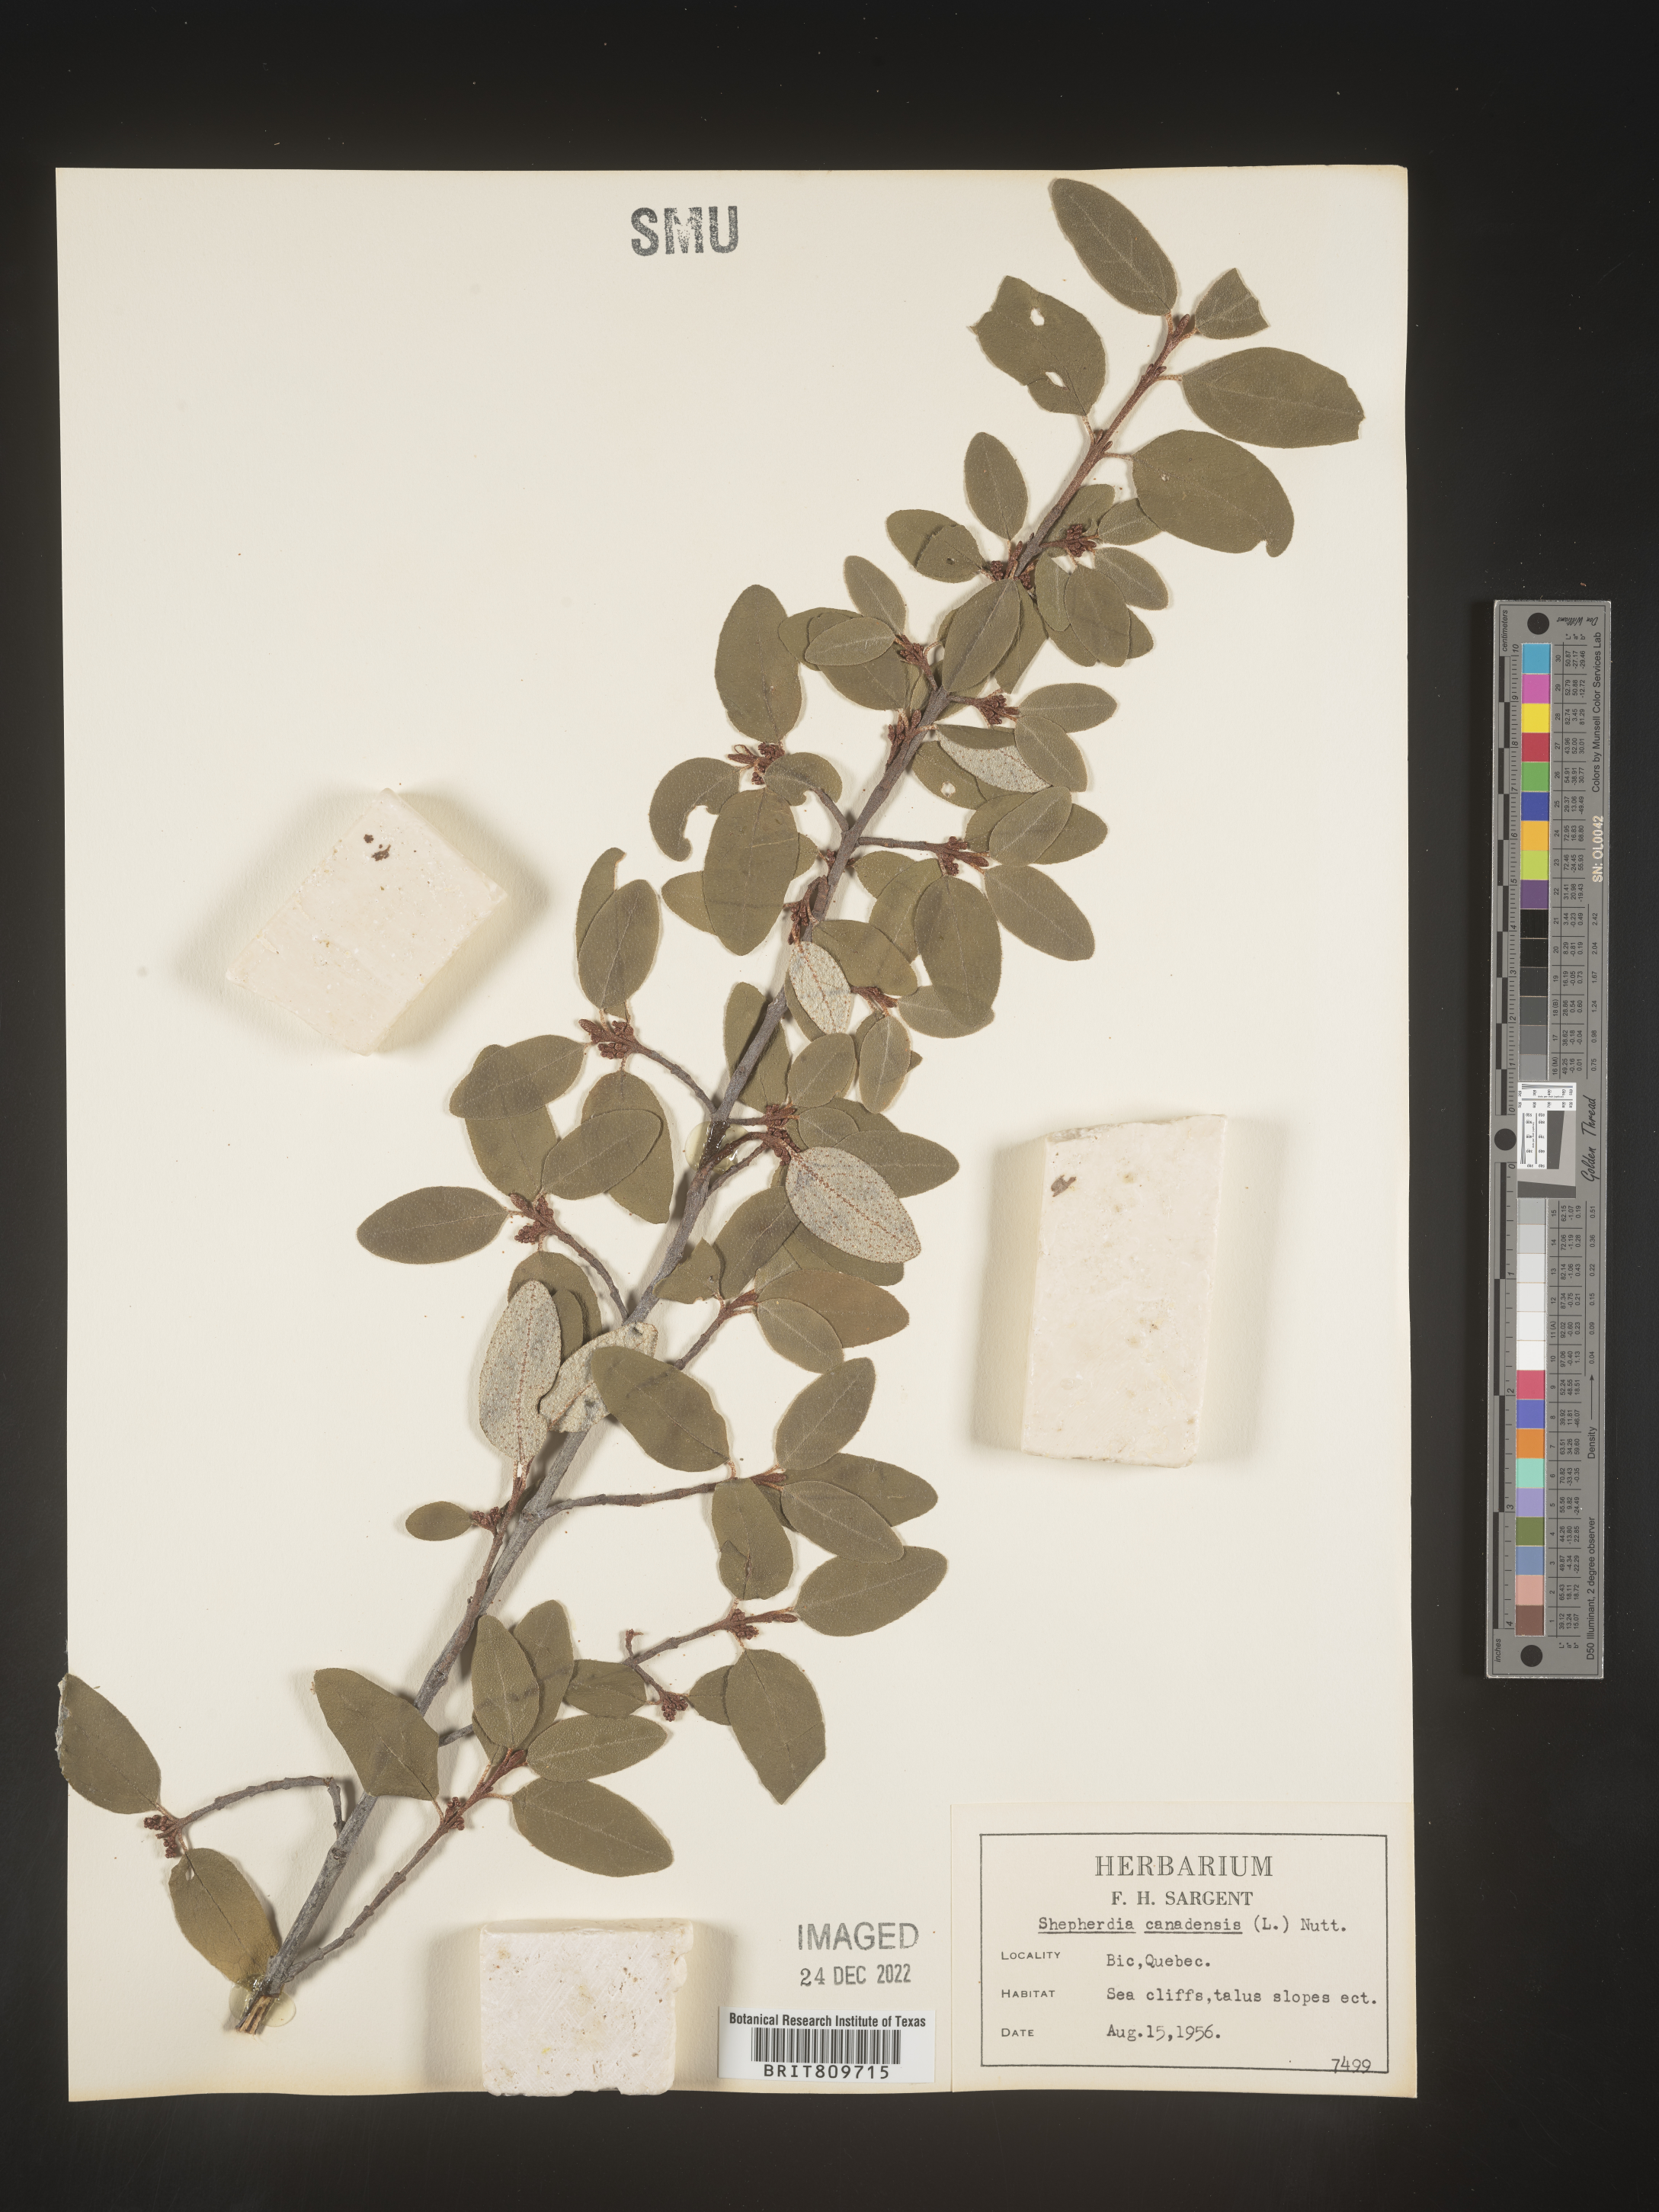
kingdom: Plantae
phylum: Tracheophyta
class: Magnoliopsida
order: Rosales
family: Elaeagnaceae
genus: Shepherdia
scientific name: Shepherdia canadensis
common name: Soapberry
